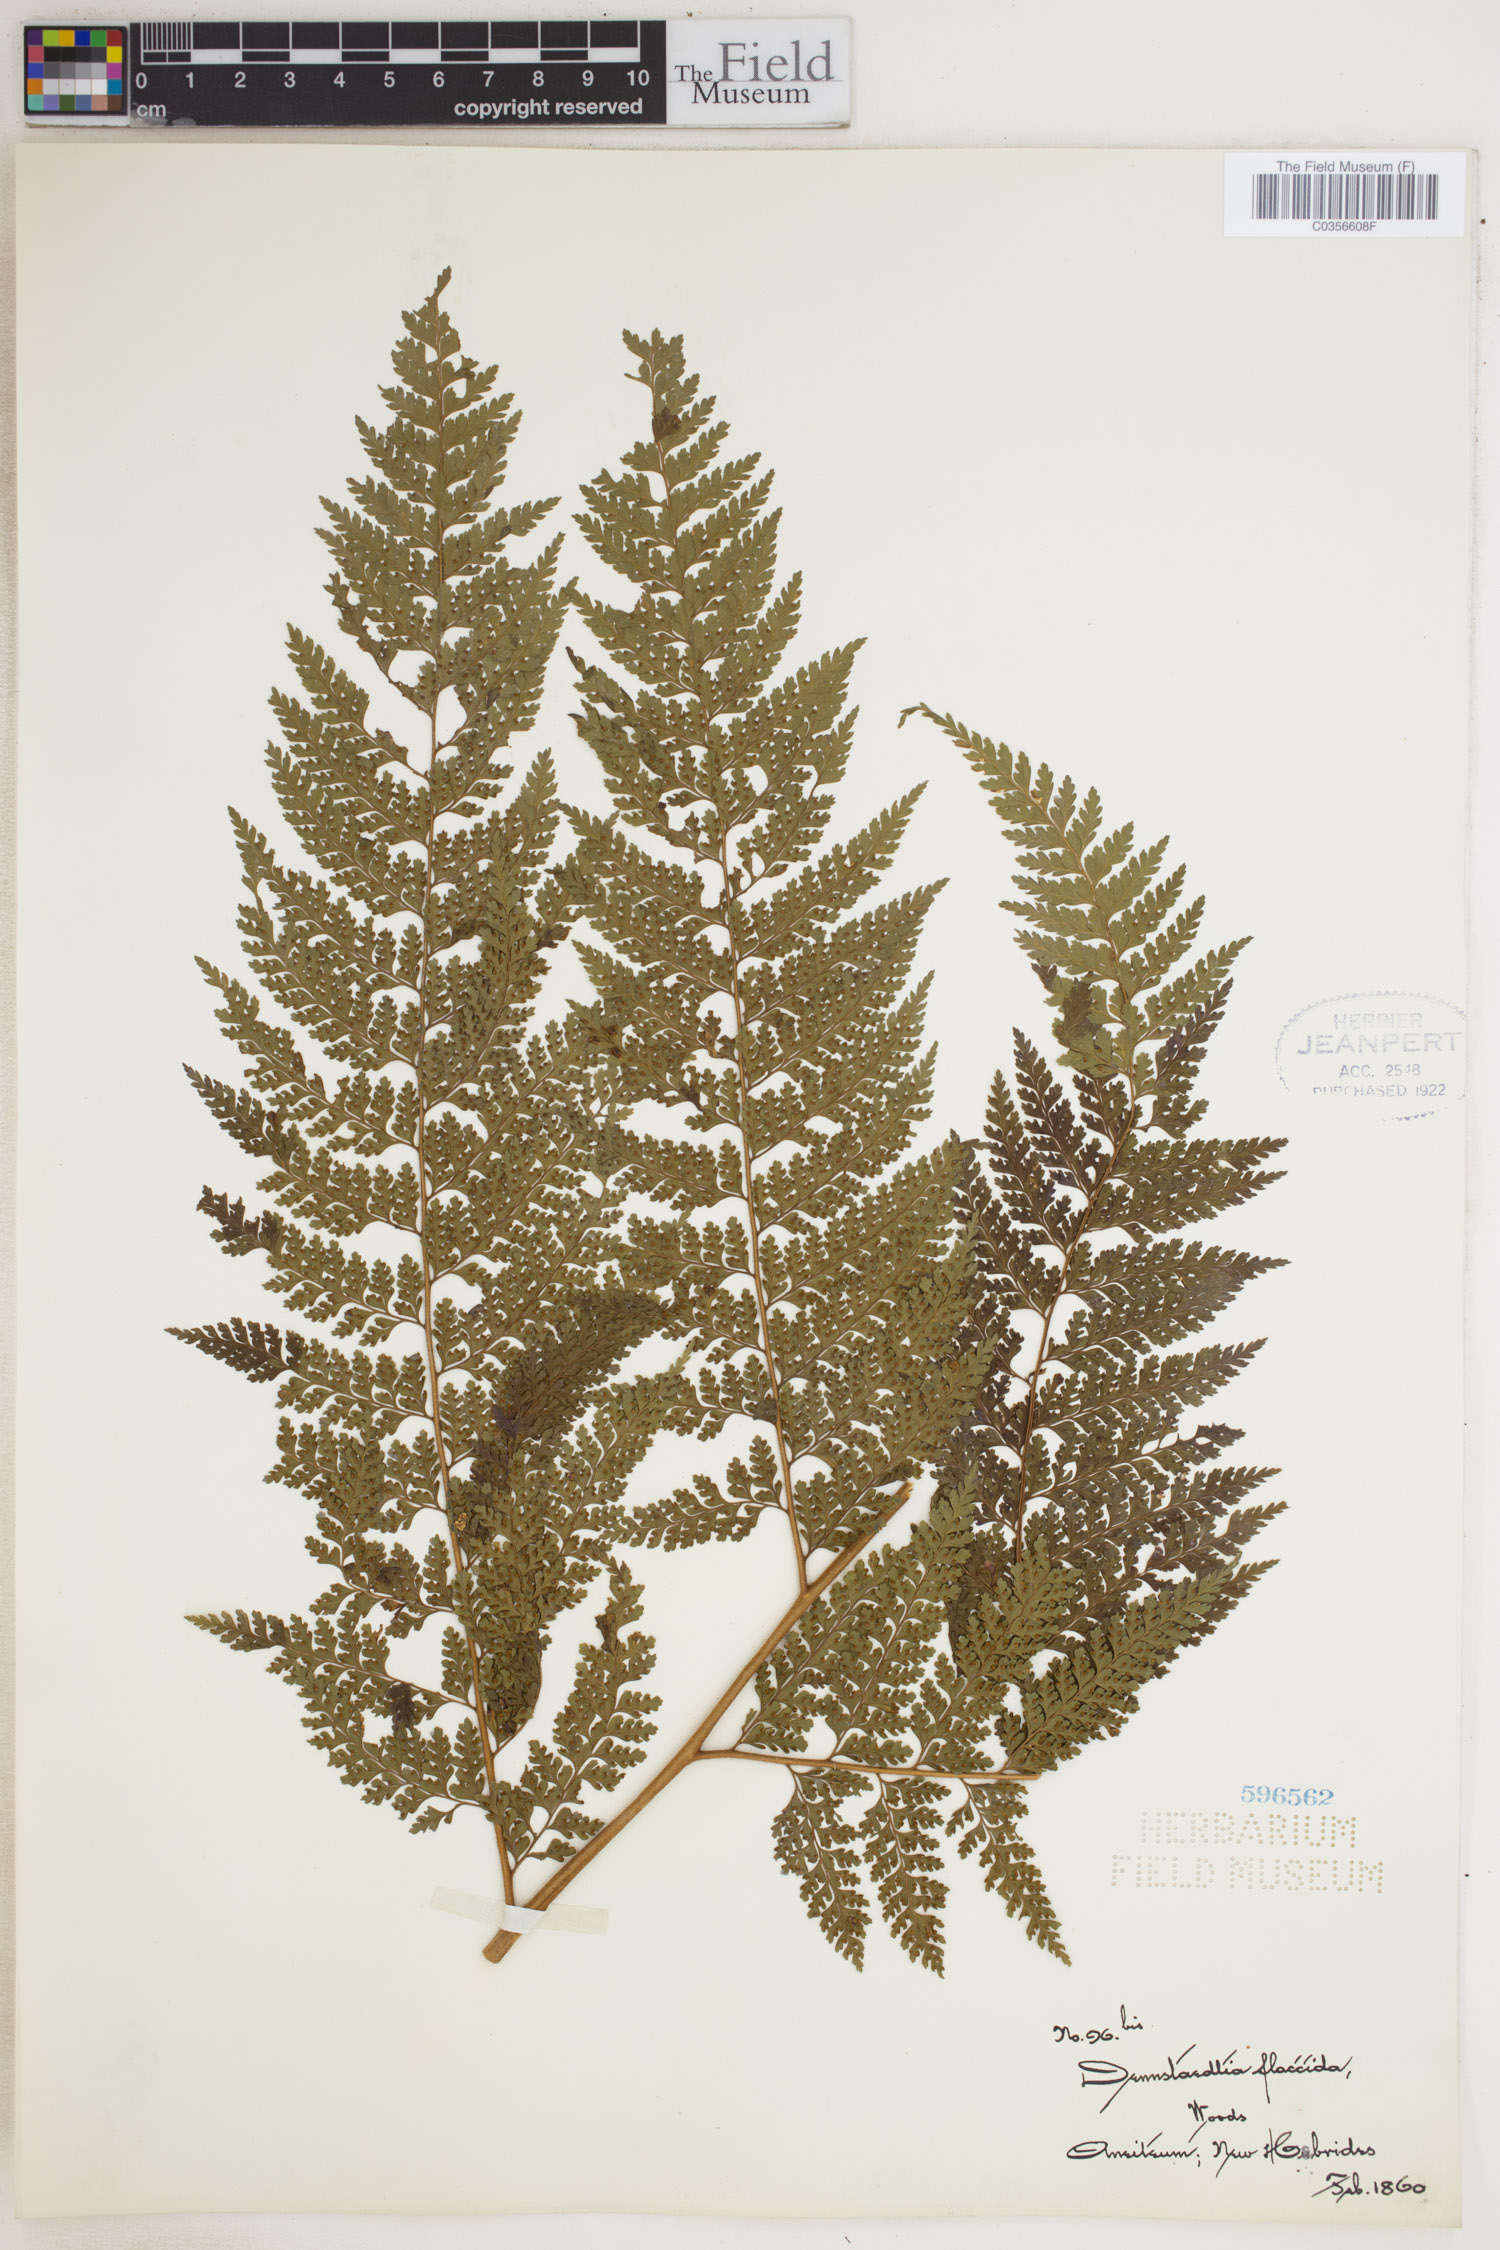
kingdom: Plantae
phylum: Tracheophyta
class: Polypodiopsida
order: Polypodiales
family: Dennstaedtiaceae
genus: Dennstaedtia
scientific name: Dennstaedtia flaccida
